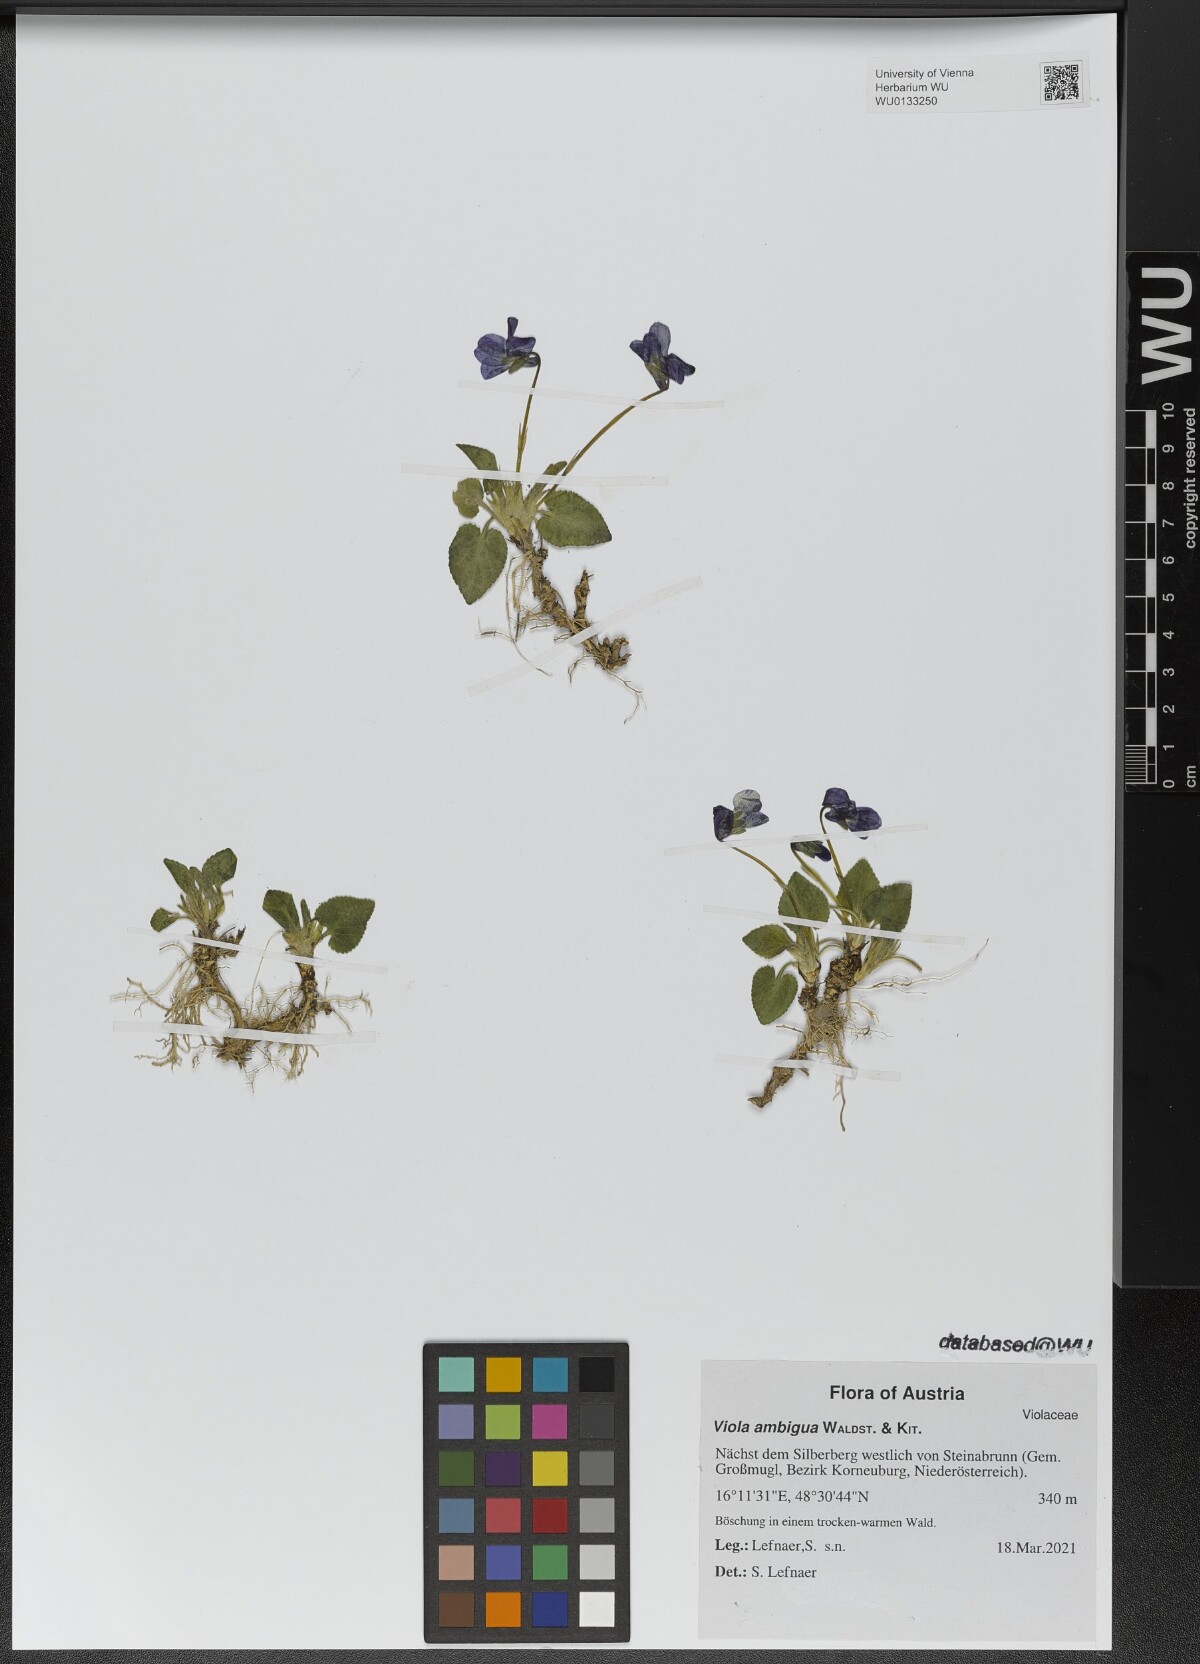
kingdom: Plantae
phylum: Tracheophyta
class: Magnoliopsida
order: Malpighiales
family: Violaceae
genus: Viola
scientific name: Viola ambigua
